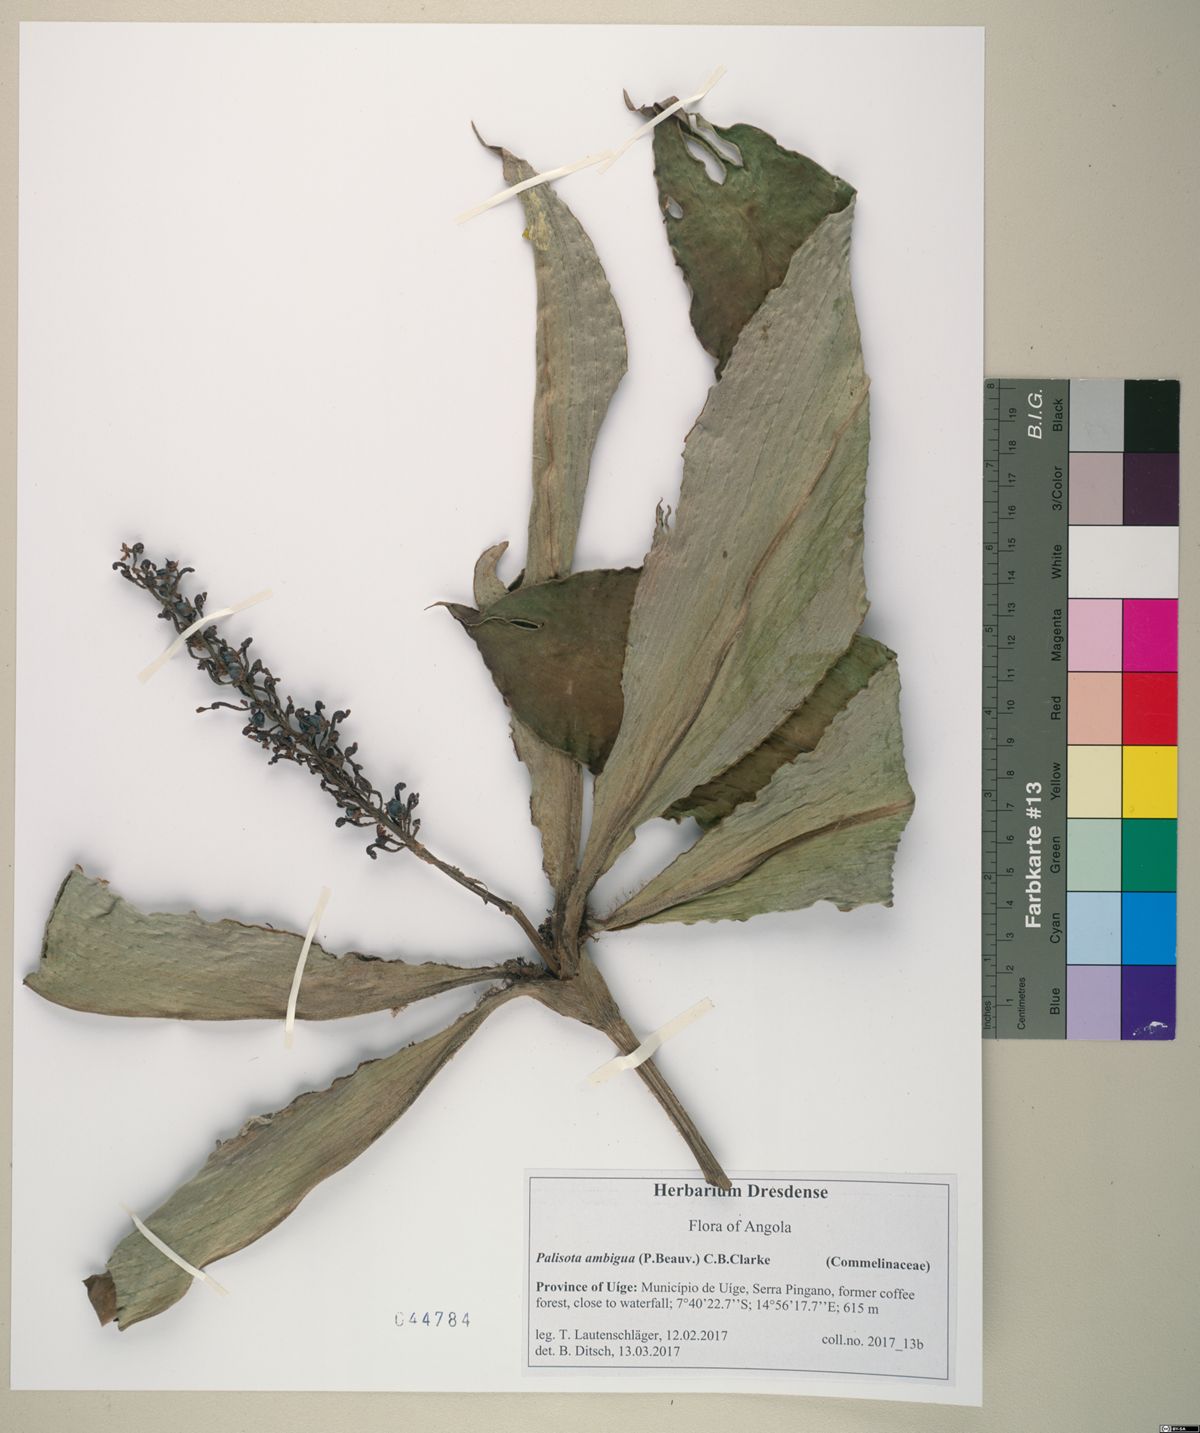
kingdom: Plantae
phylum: Tracheophyta
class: Liliopsida
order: Commelinales
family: Commelinaceae
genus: Palisota
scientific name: Palisota ambigua
